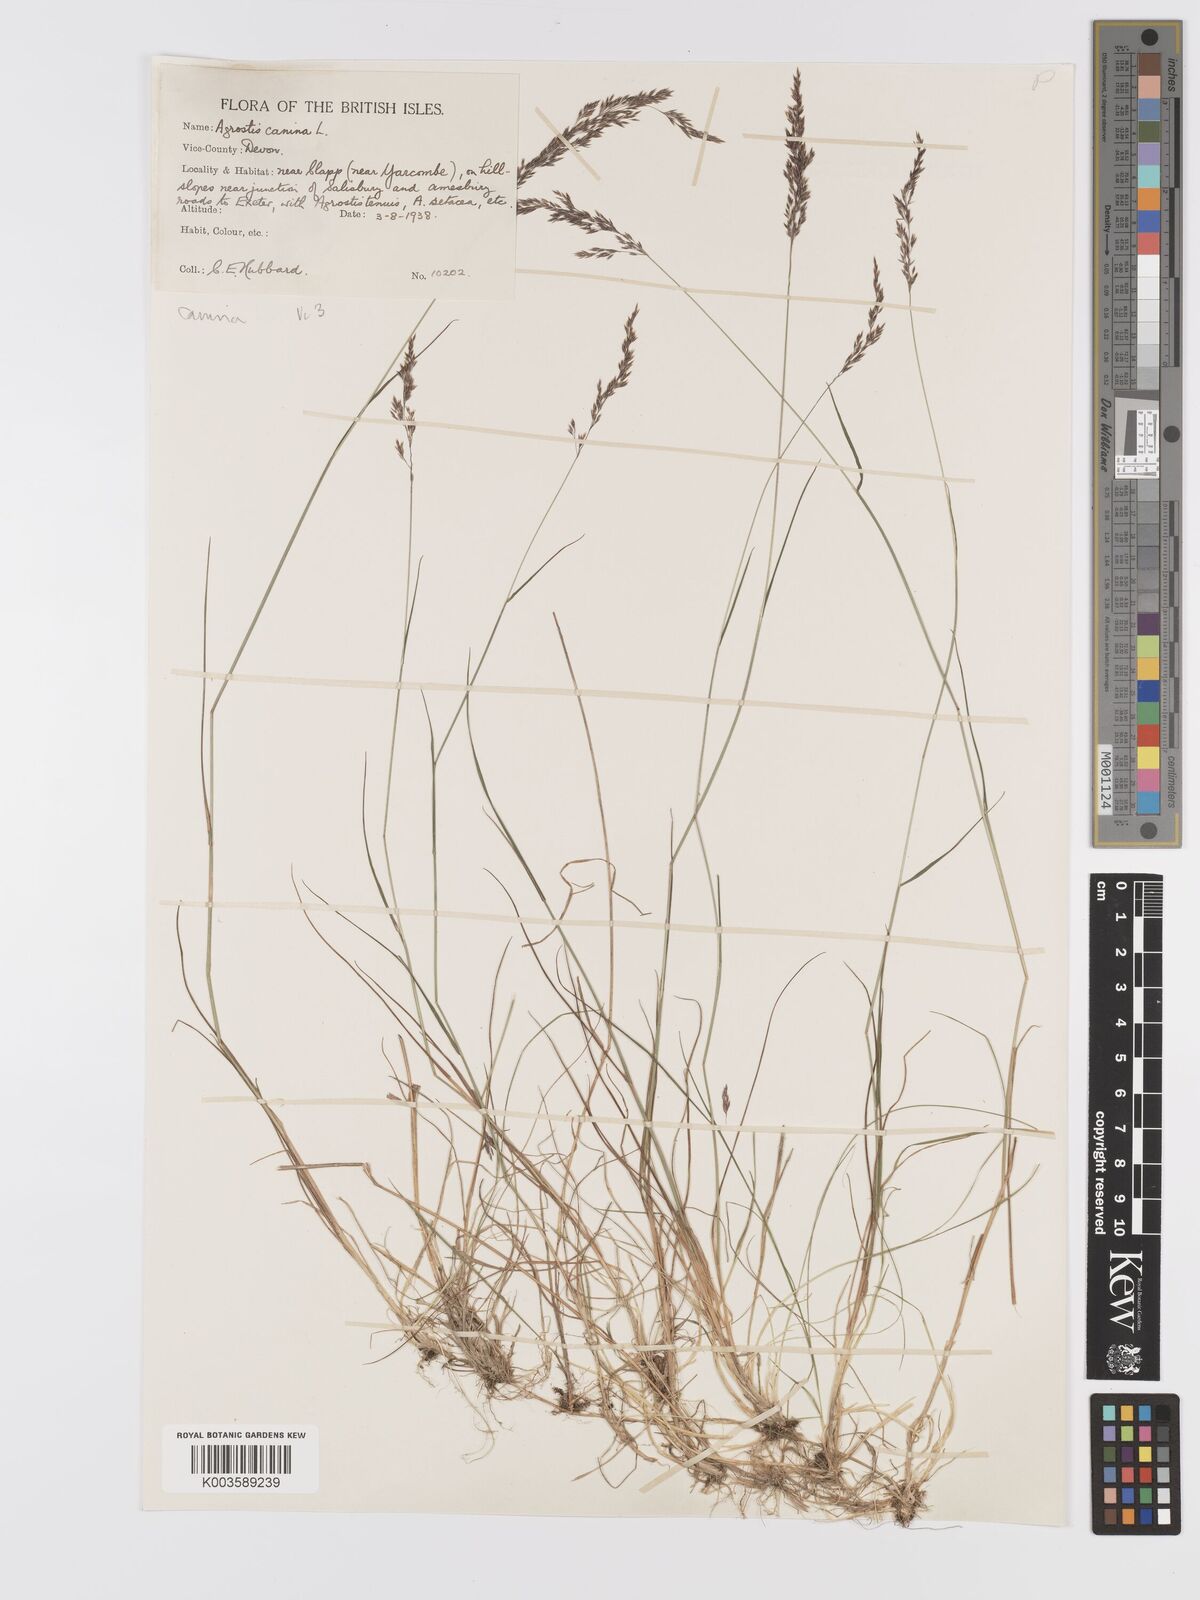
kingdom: Plantae
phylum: Tracheophyta
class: Liliopsida
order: Poales
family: Poaceae
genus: Agrostis
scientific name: Agrostis canina
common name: Velvet bent
